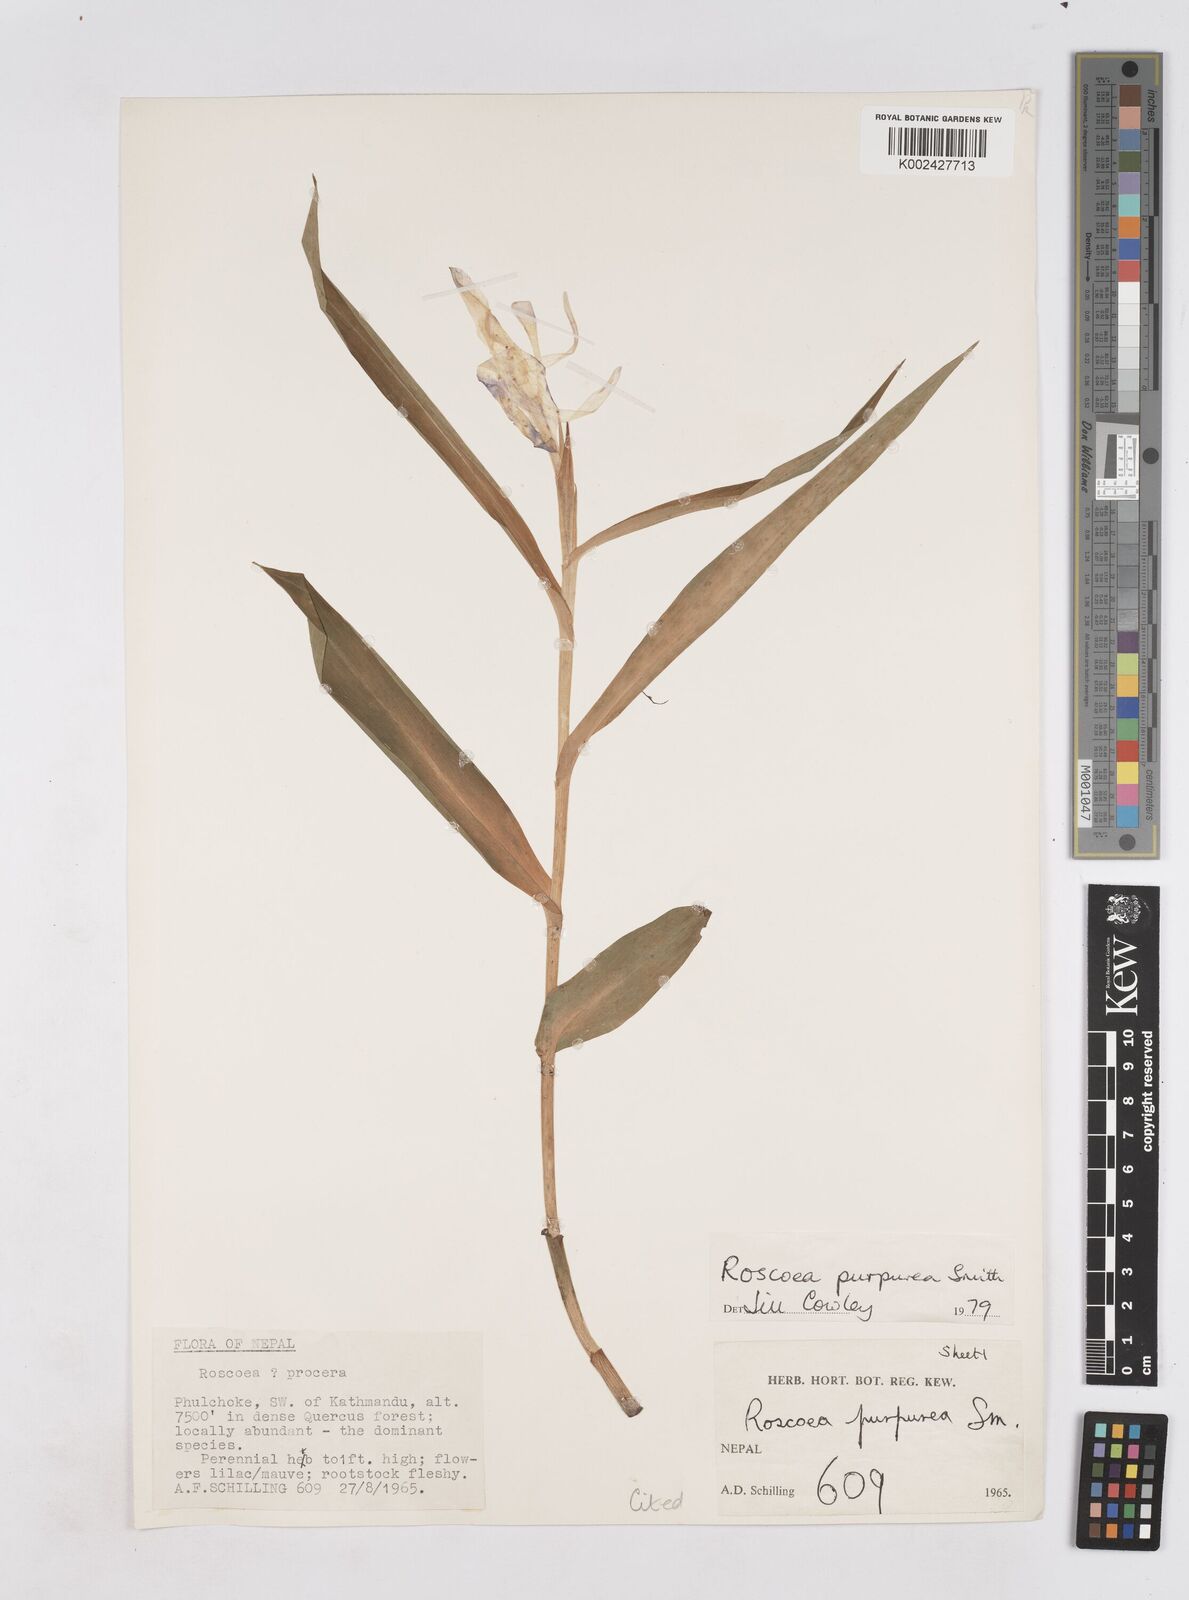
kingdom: Plantae
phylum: Tracheophyta
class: Liliopsida
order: Zingiberales
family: Zingiberaceae
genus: Roscoea
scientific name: Roscoea purpurea
